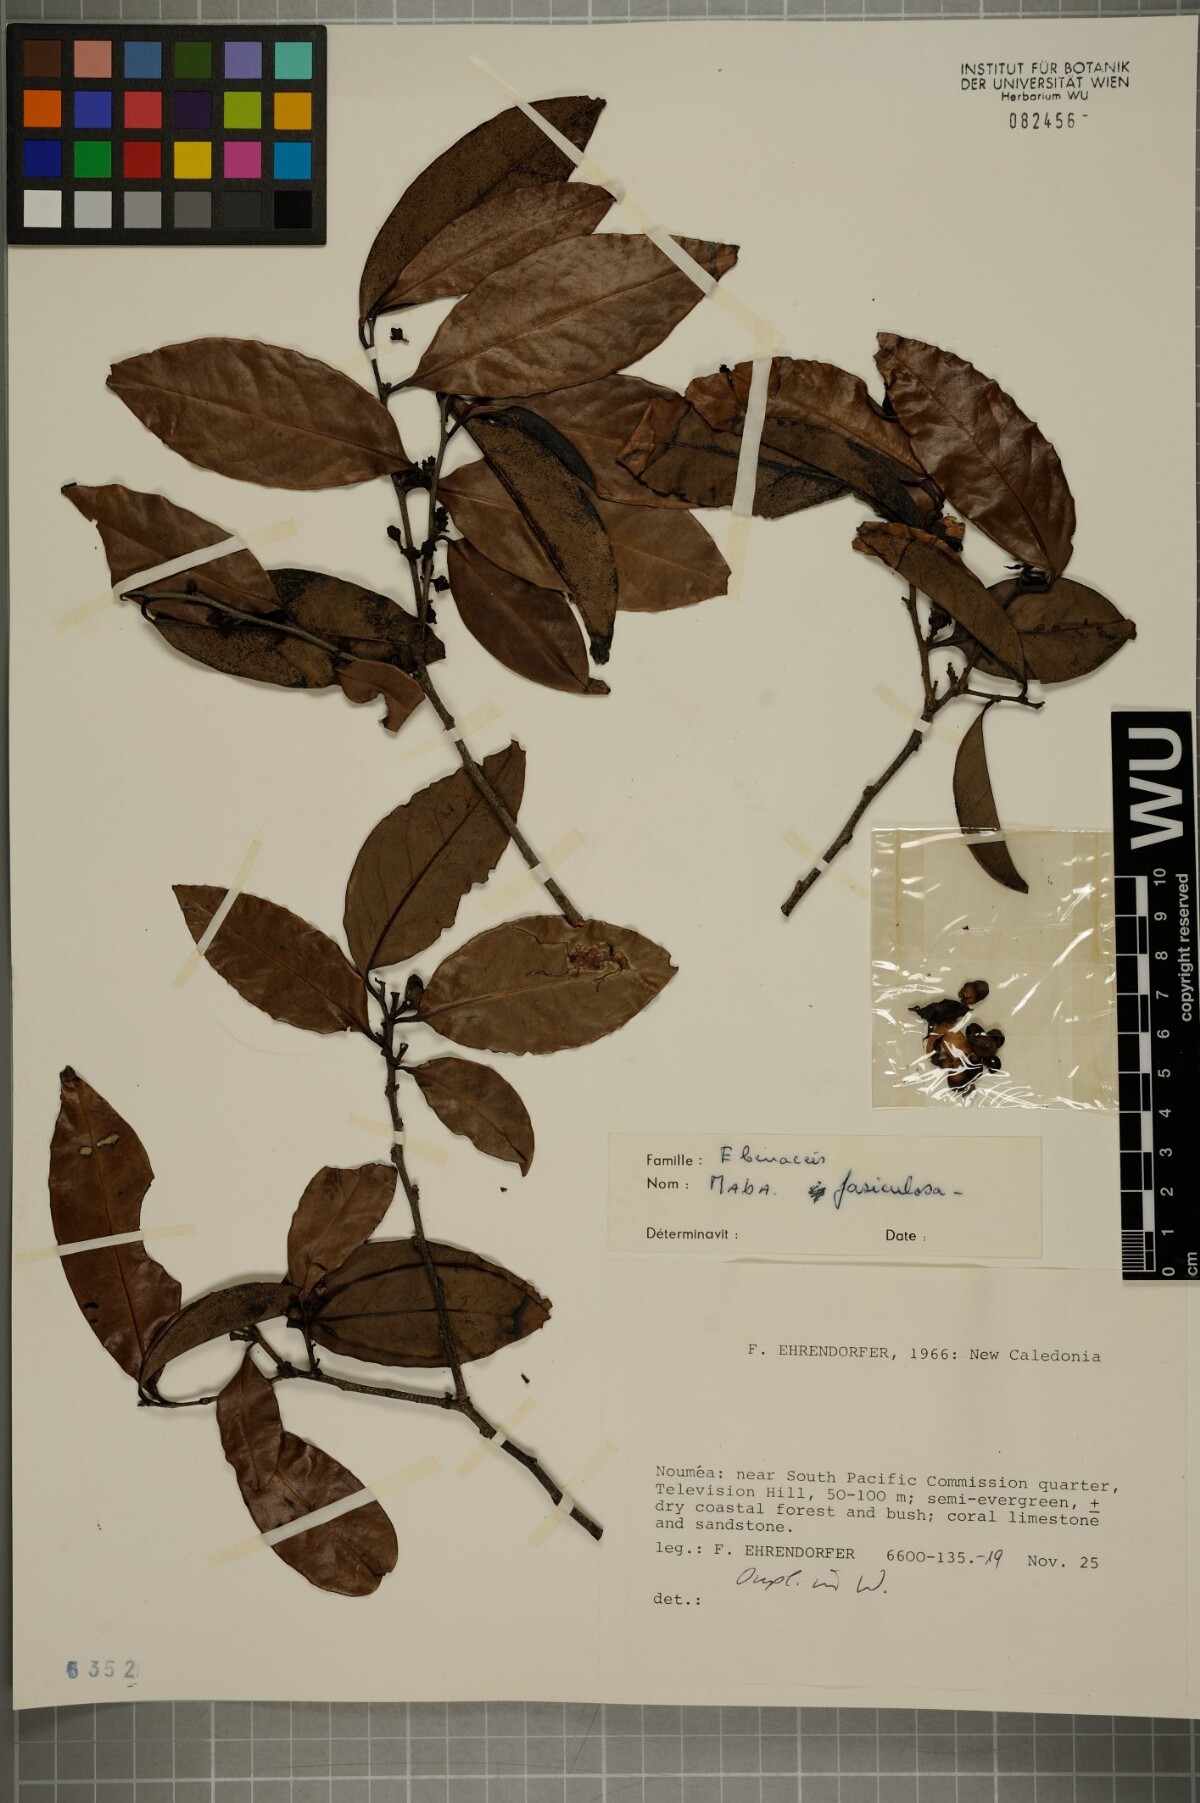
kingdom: Plantae
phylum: Tracheophyta
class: Magnoliopsida
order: Ericales
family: Ebenaceae
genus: Diospyros
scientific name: Diospyros fasciculosa
